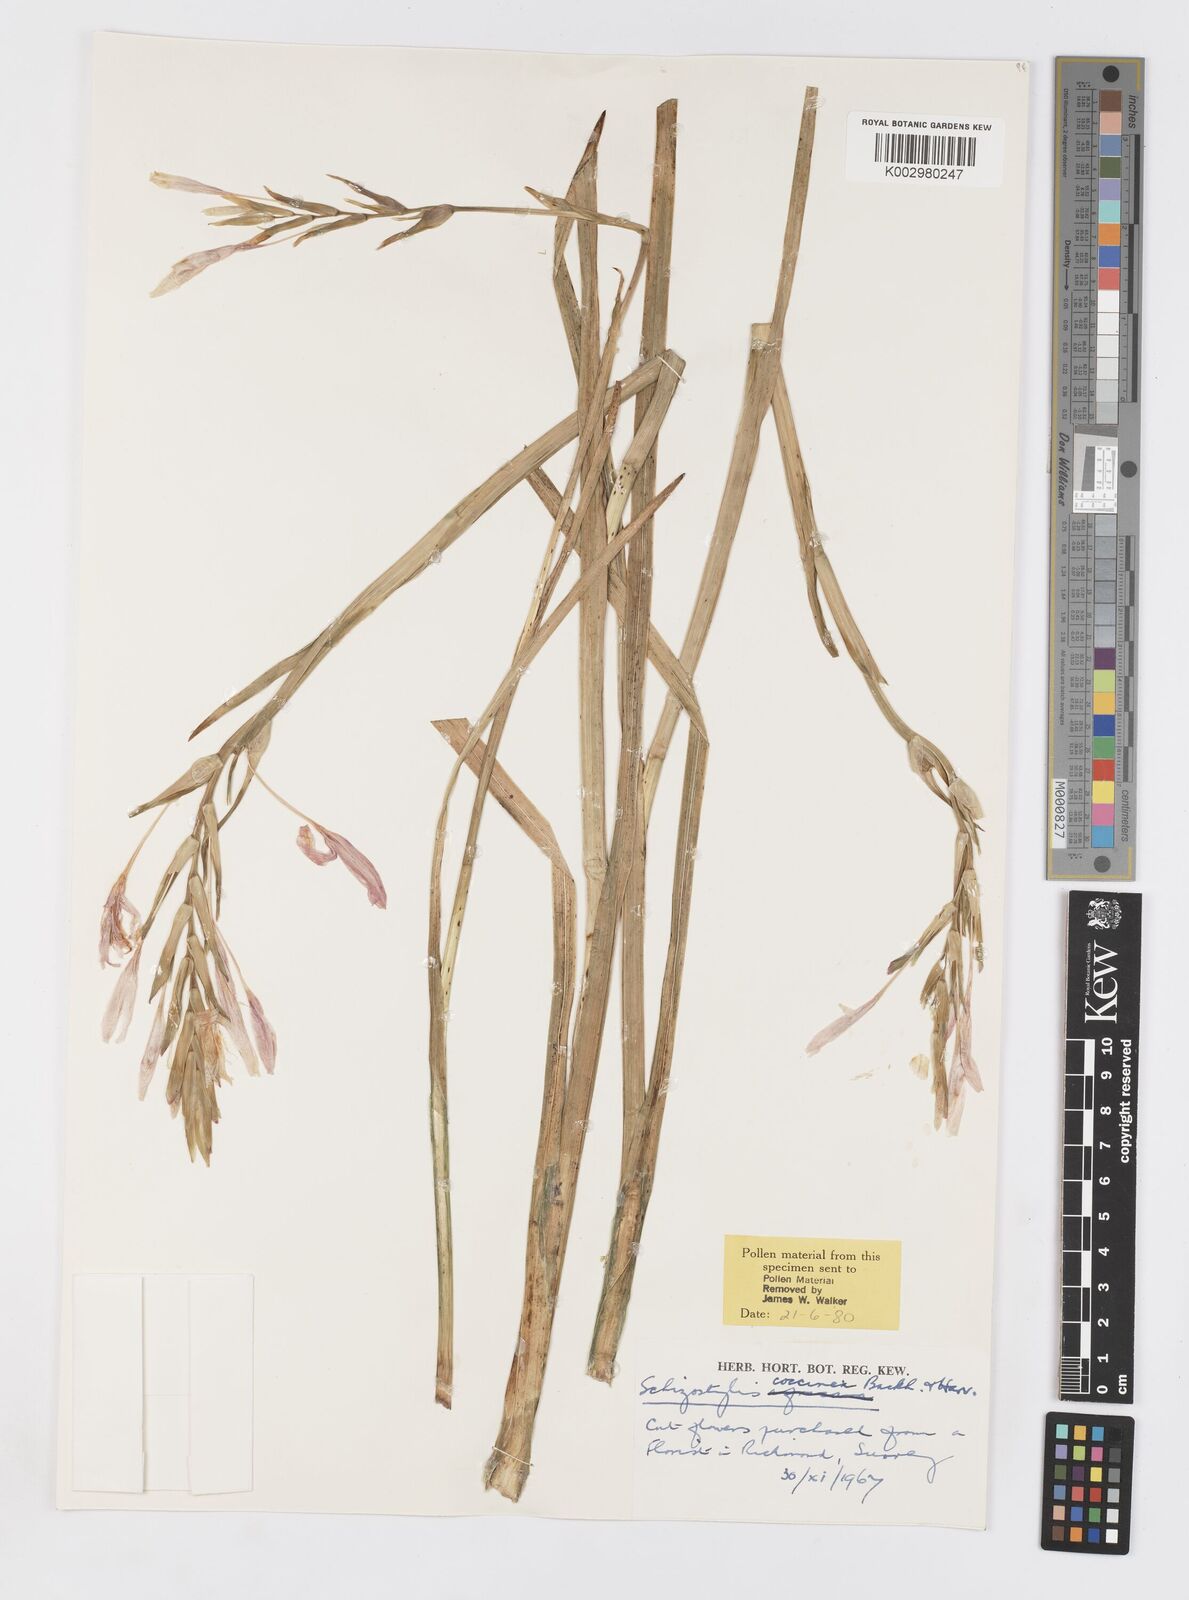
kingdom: Plantae
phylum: Tracheophyta
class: Liliopsida
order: Asparagales
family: Iridaceae
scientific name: Iridaceae
